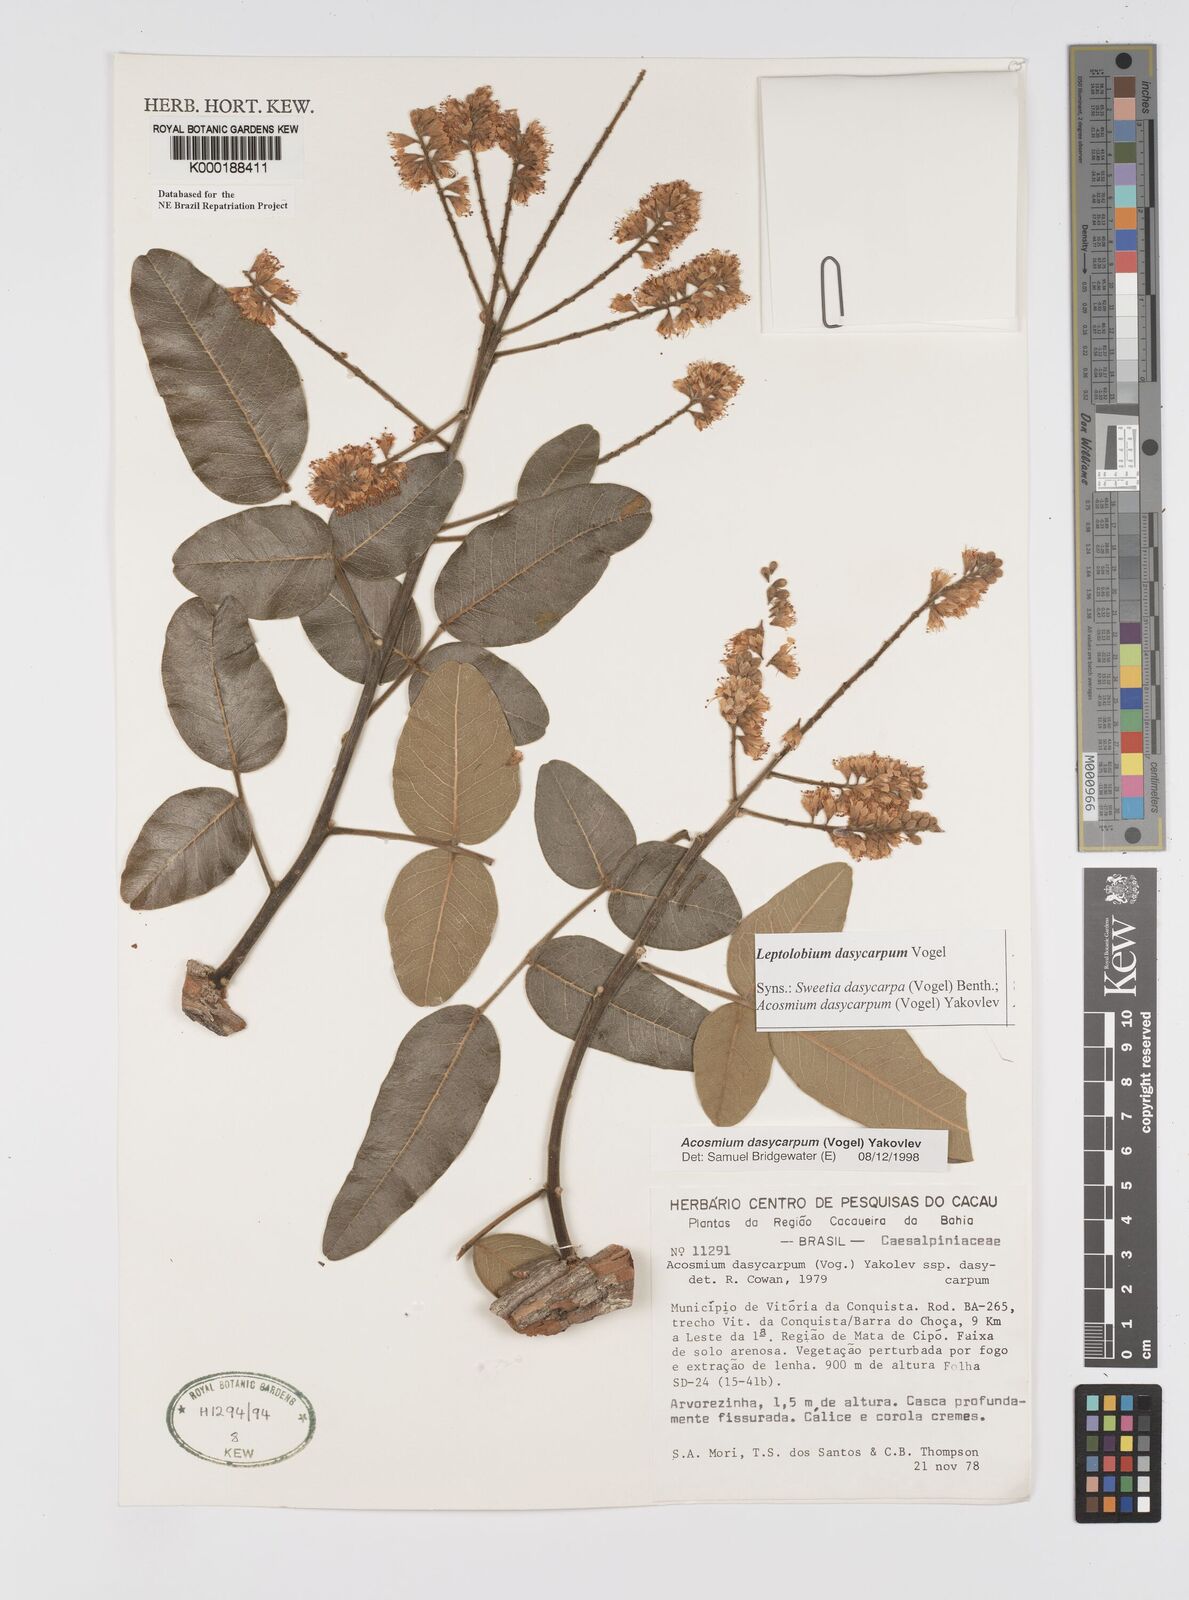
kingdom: Plantae
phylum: Tracheophyta
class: Magnoliopsida
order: Fabales
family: Fabaceae
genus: Leptolobium
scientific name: Leptolobium dasycarpum
